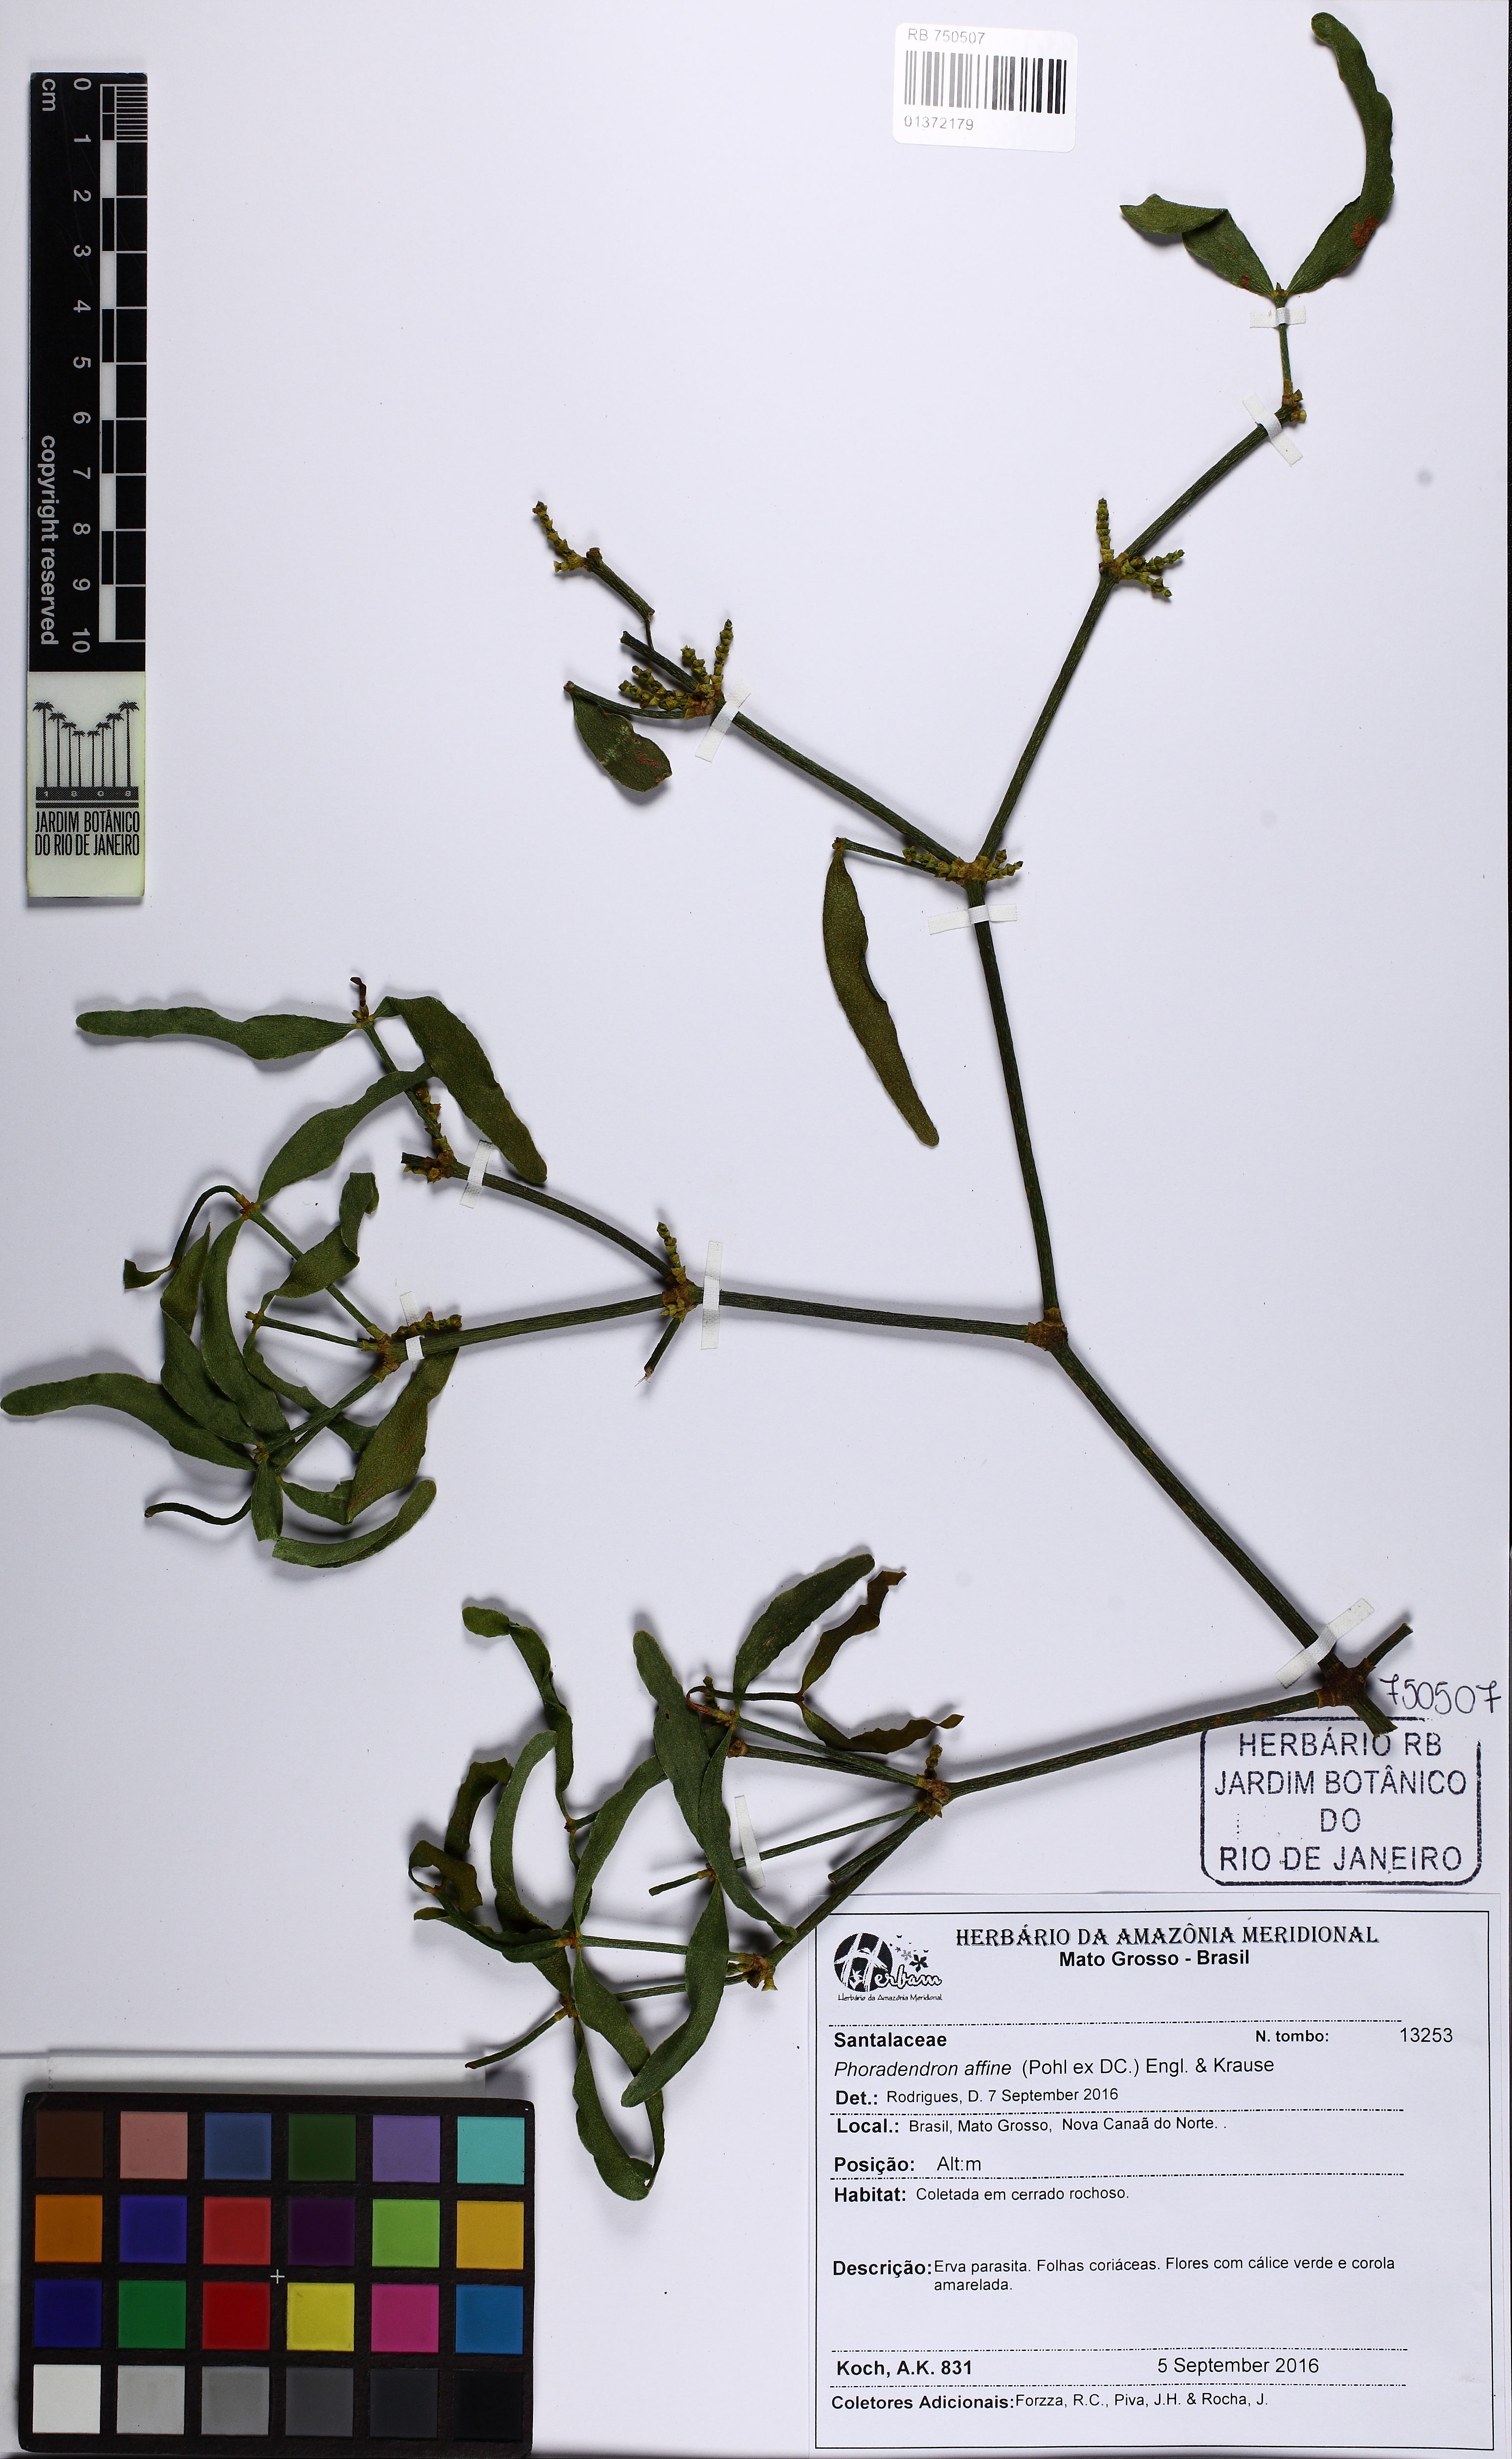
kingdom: Plantae
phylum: Tracheophyta
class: Magnoliopsida
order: Santalales
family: Viscaceae
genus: Phoradendron
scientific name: Phoradendron affine
